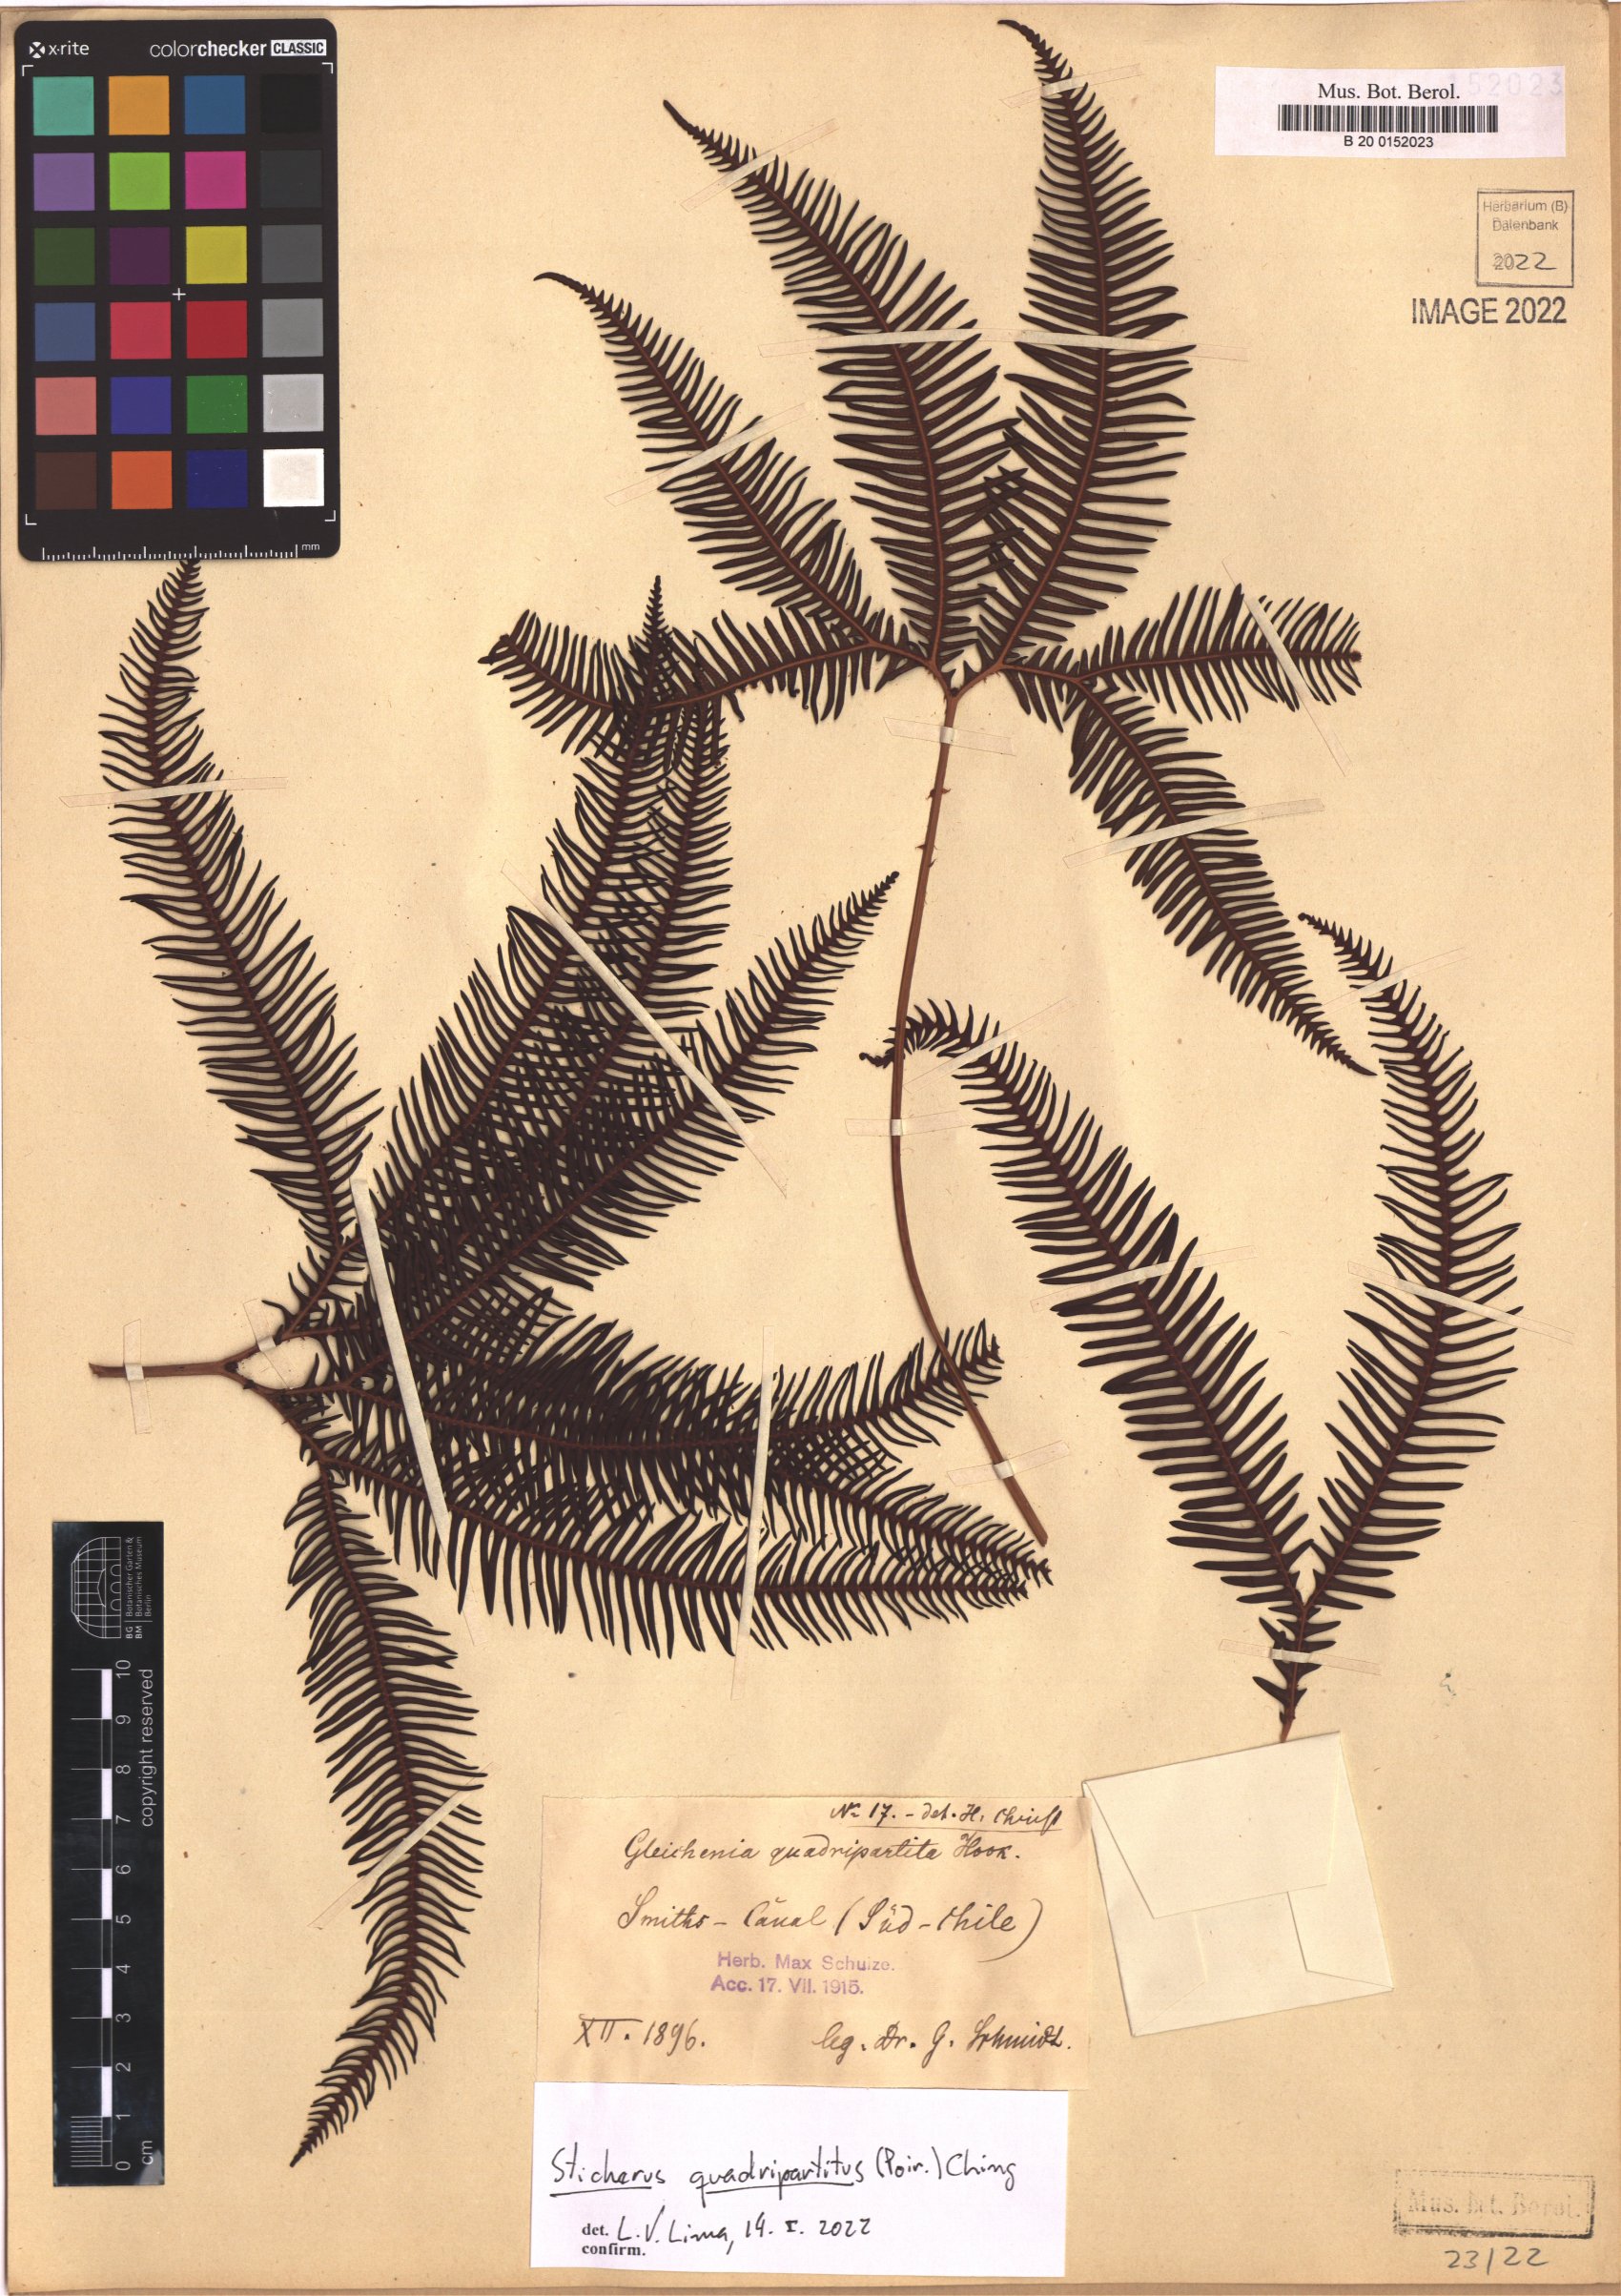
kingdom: Plantae
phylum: Tracheophyta
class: Polypodiopsida
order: Gleicheniales
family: Gleicheniaceae
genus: Sticherus
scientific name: Sticherus quadripartitus
